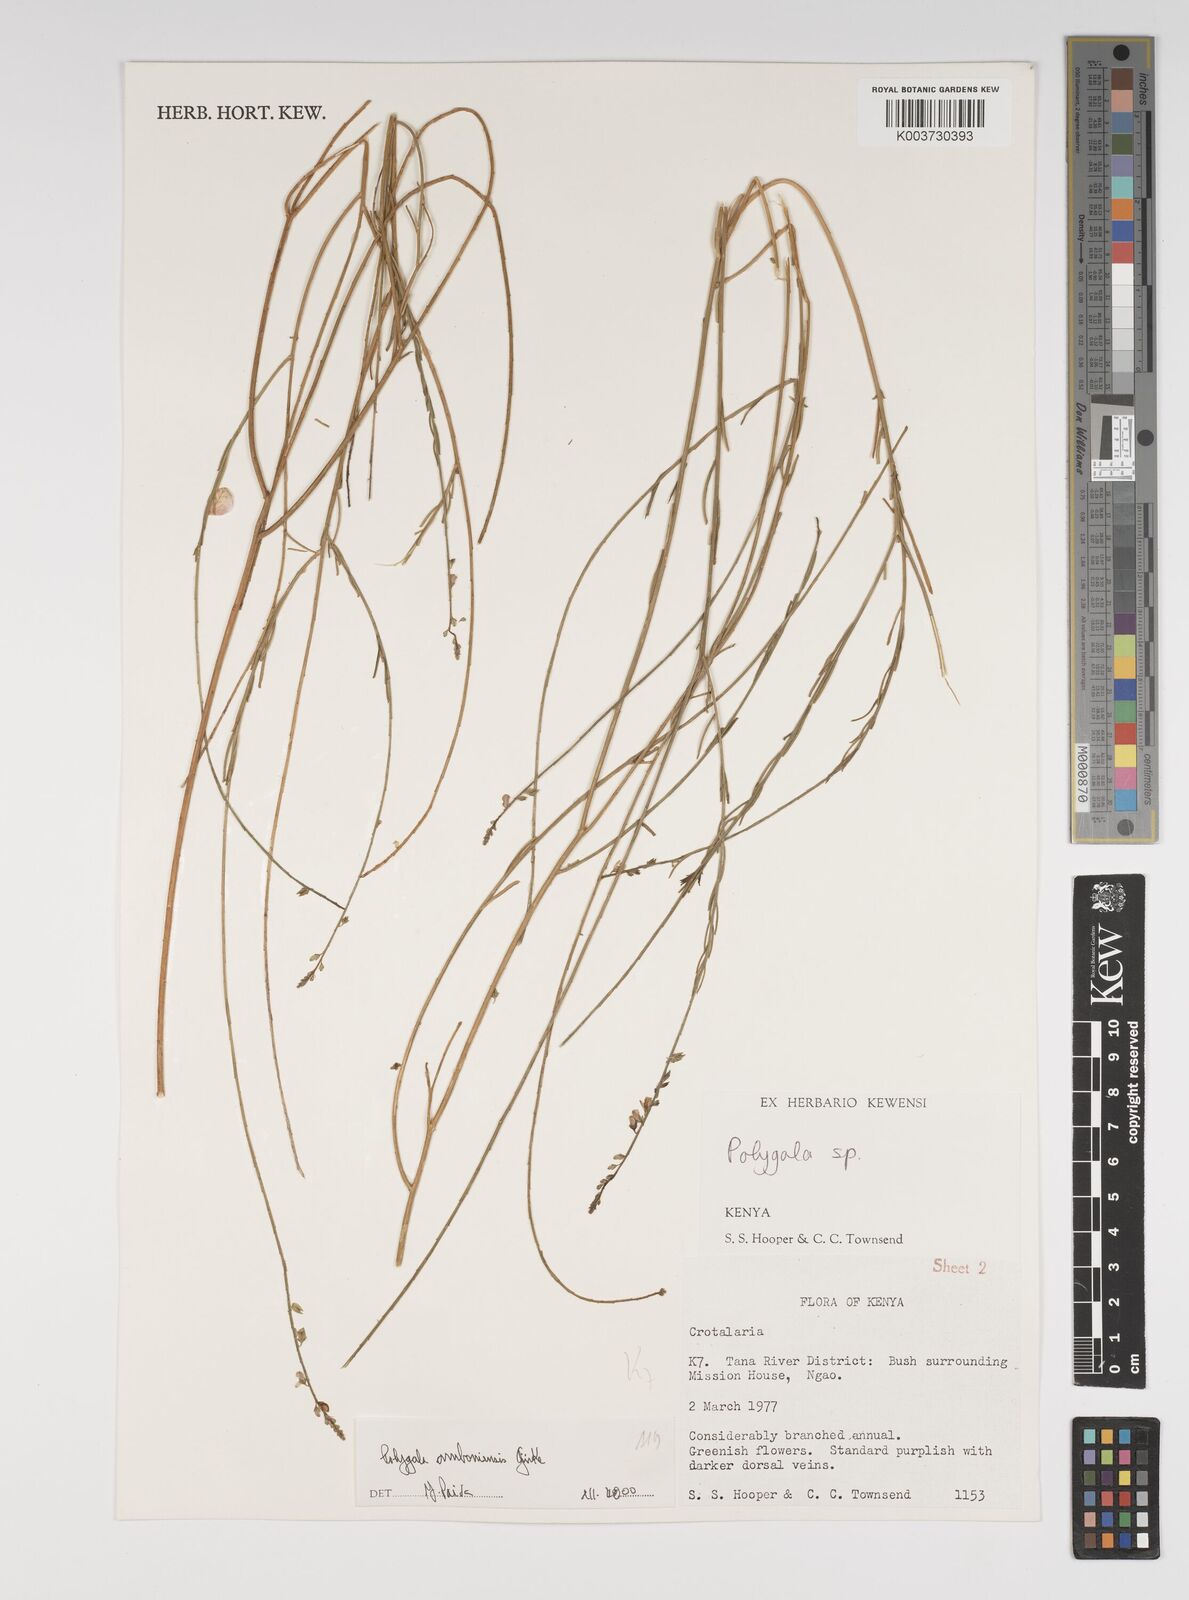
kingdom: Plantae
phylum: Tracheophyta
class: Magnoliopsida
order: Fabales
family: Polygalaceae
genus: Polygala
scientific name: Polygala amboniensis
